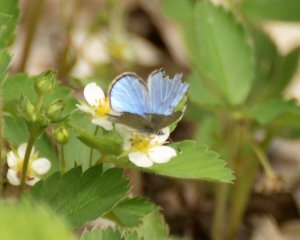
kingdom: Animalia
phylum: Arthropoda
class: Insecta
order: Lepidoptera
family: Lycaenidae
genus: Glaucopsyche
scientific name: Glaucopsyche lygdamus
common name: Silvery Blue
